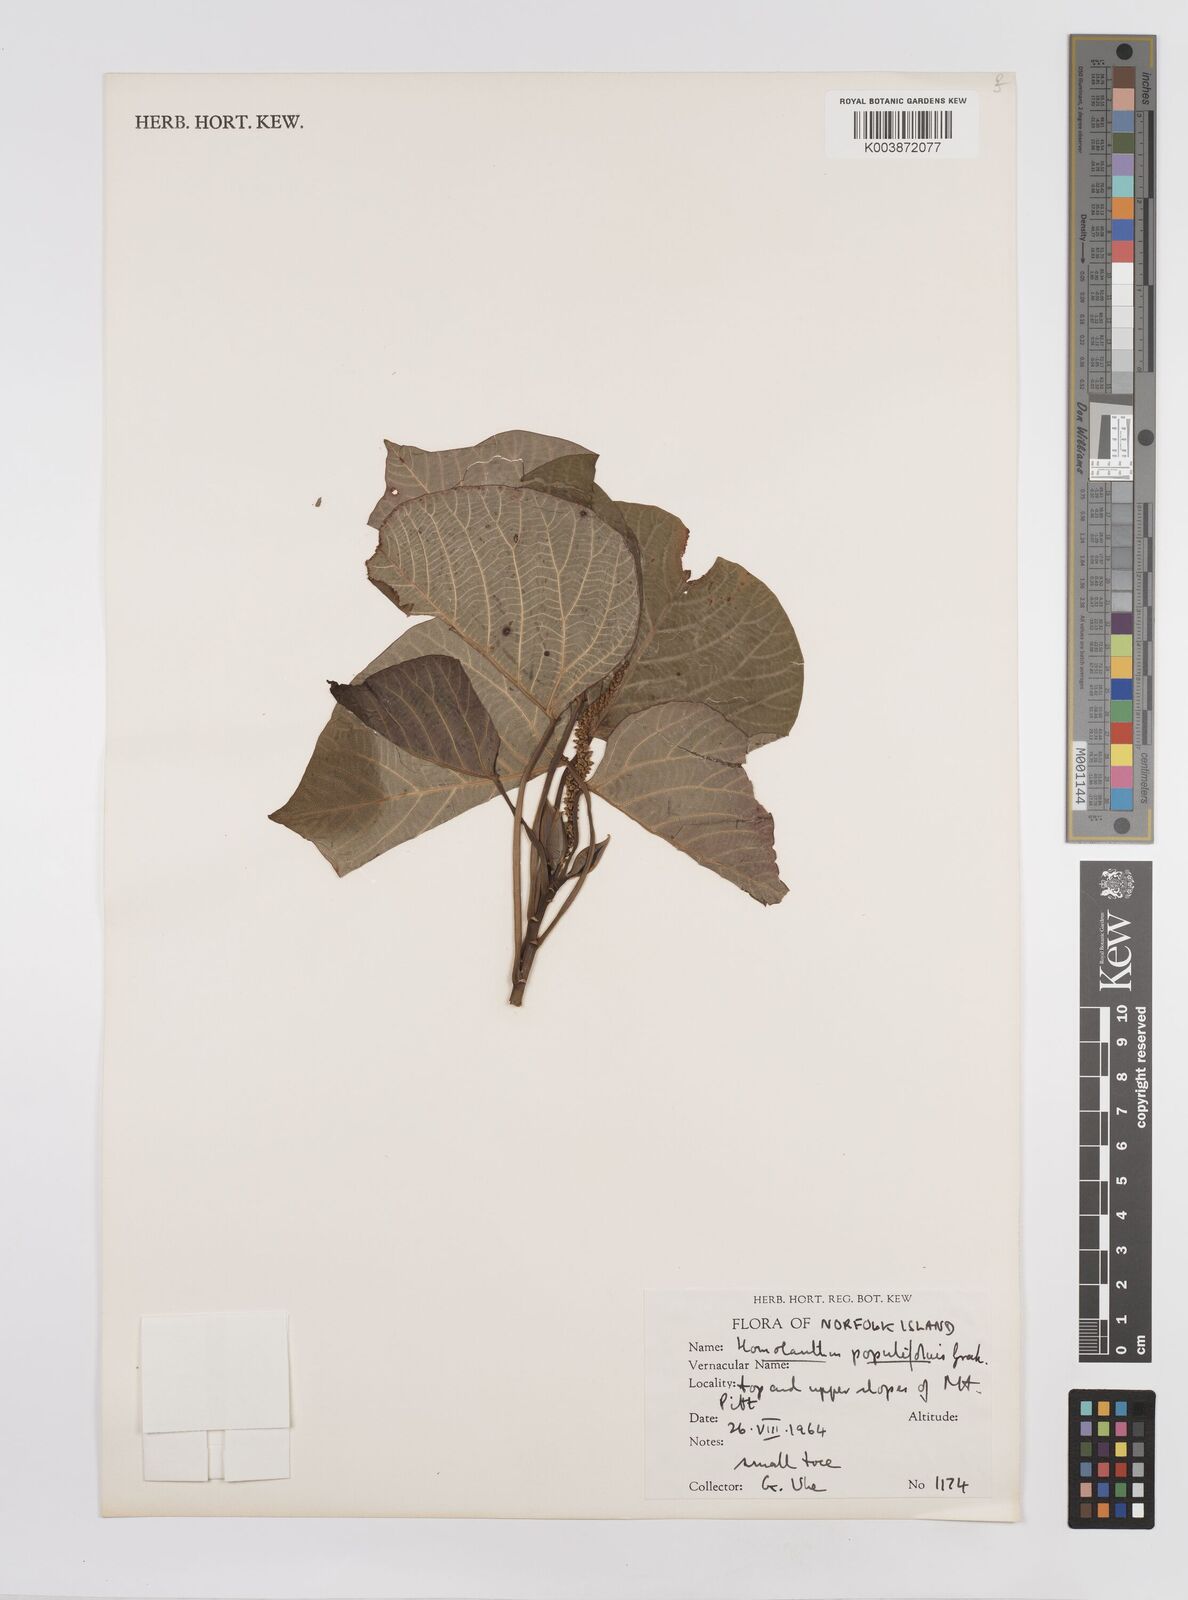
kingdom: Plantae
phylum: Tracheophyta
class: Magnoliopsida
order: Malpighiales
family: Euphorbiaceae
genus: Homalanthus
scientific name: Homalanthus populifolius
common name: Queensland poplar
